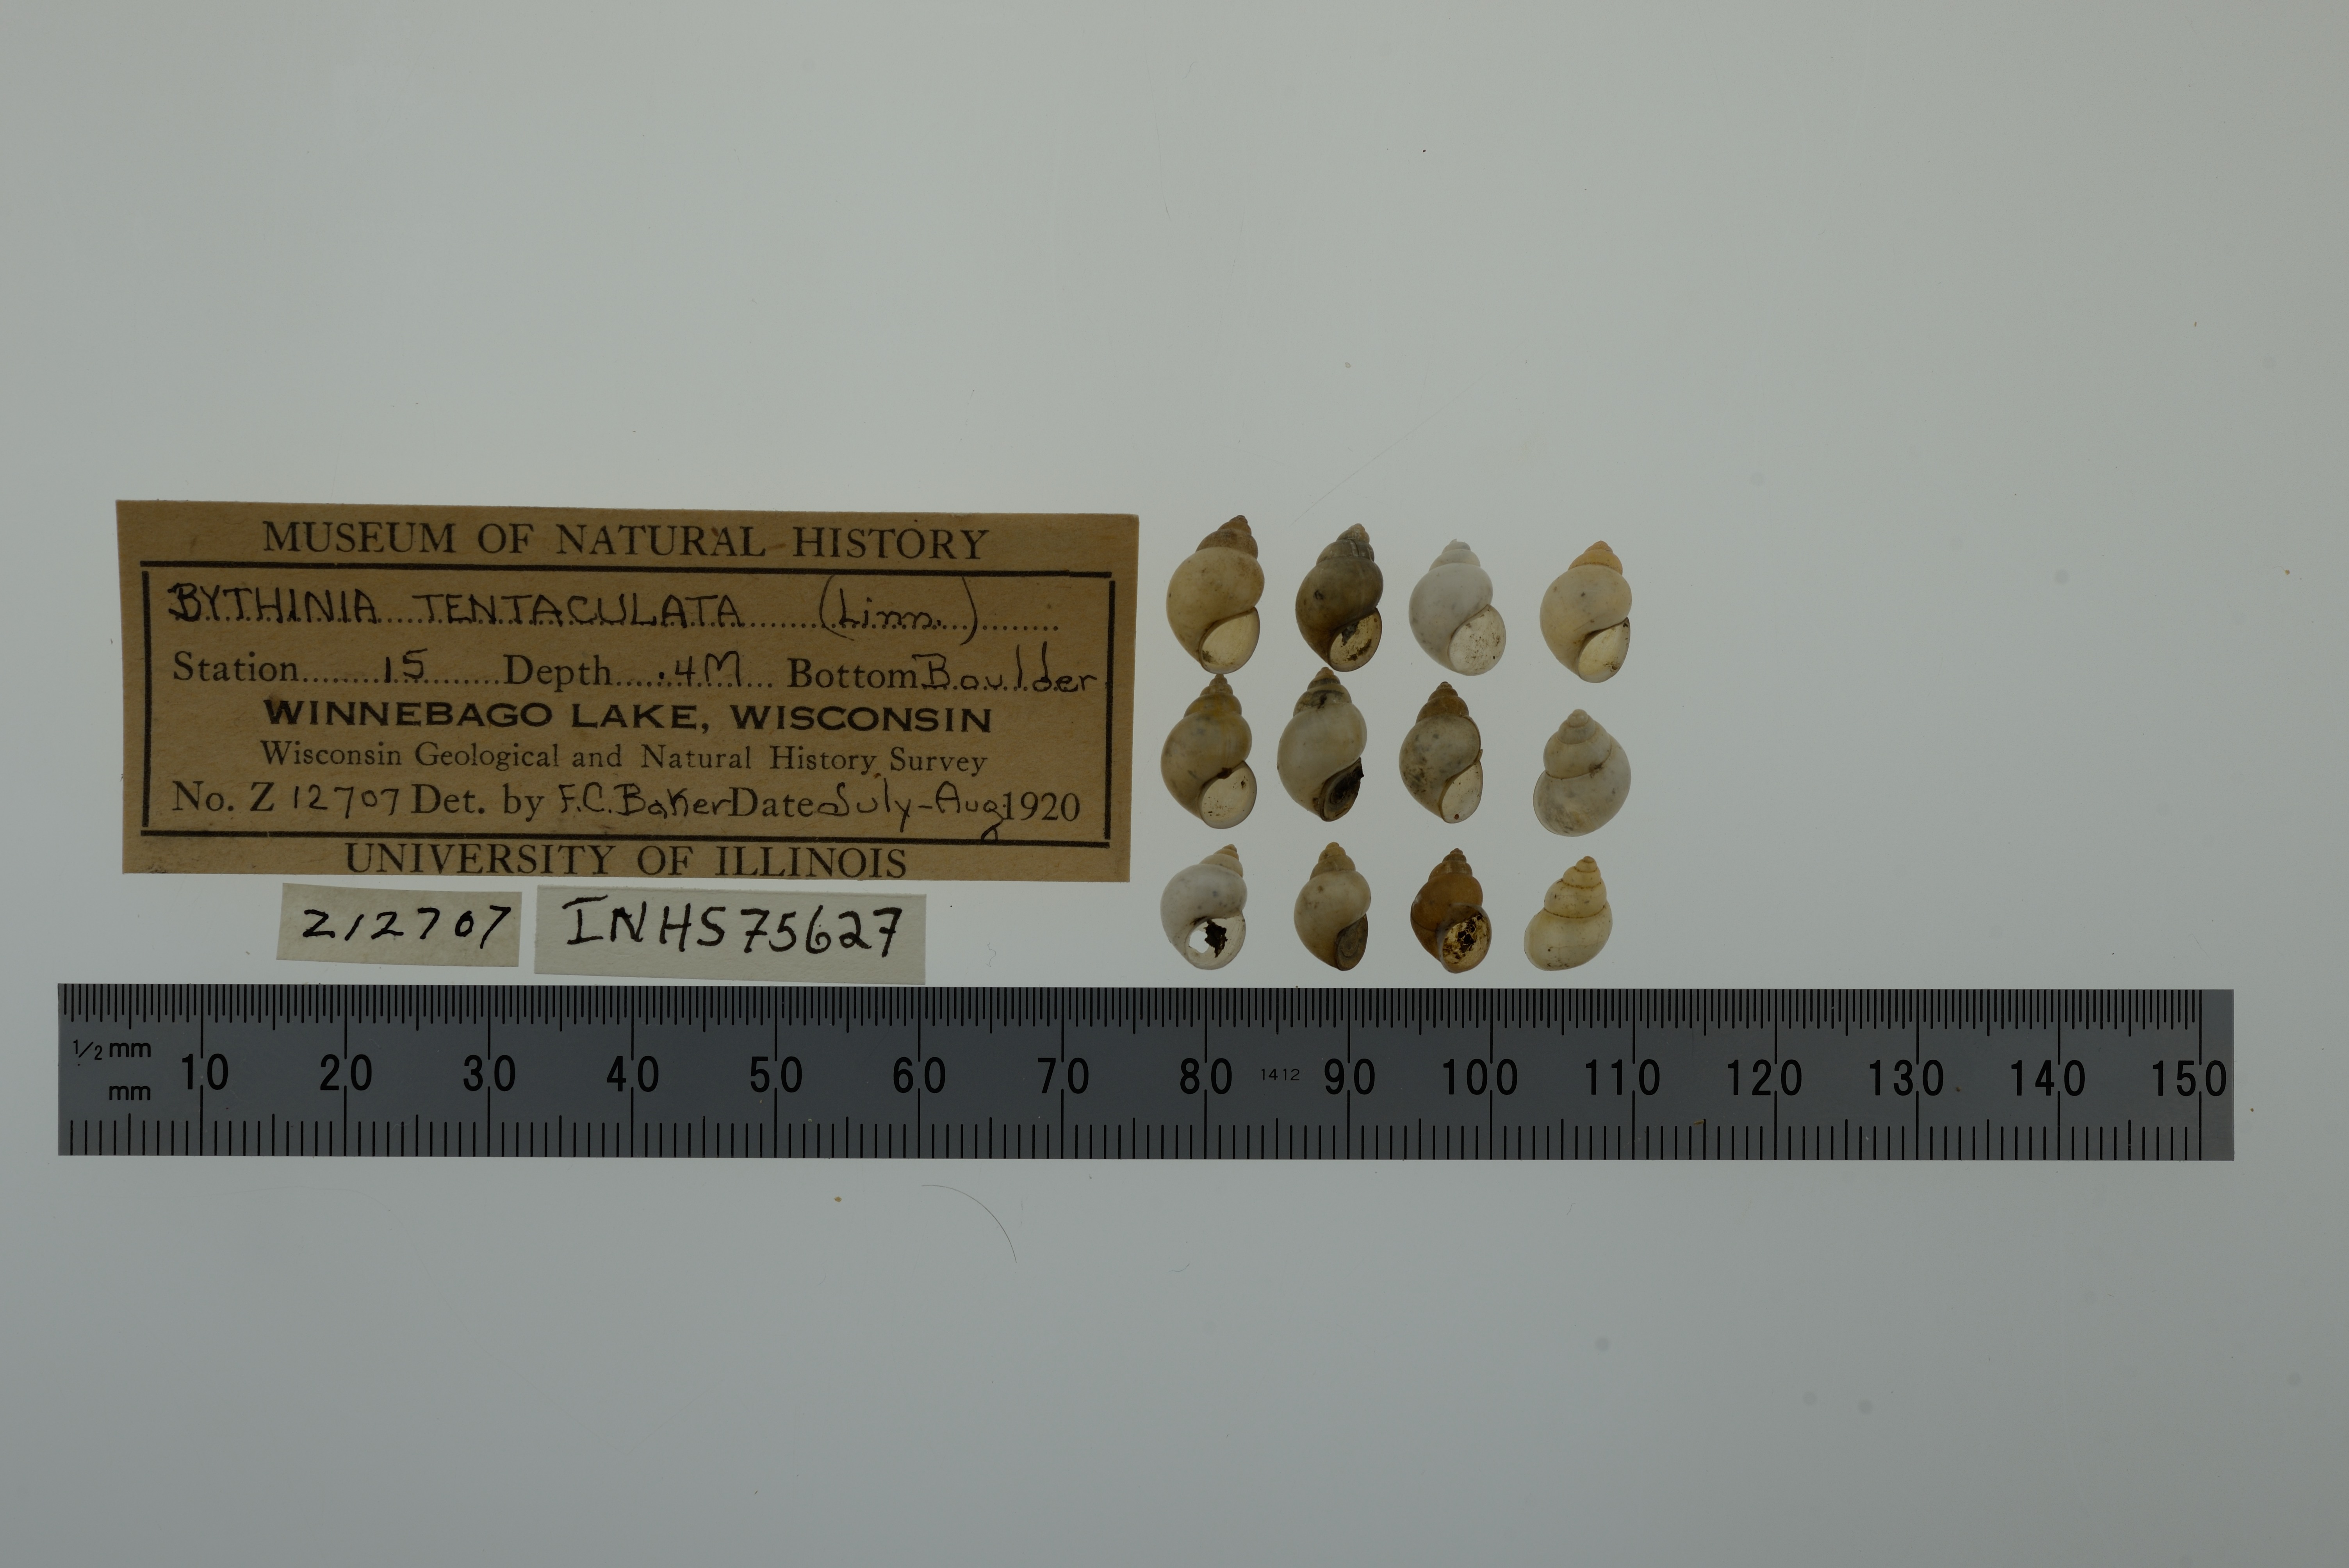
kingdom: Animalia
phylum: Mollusca
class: Gastropoda
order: Littorinimorpha
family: Bithyniidae
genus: Bithynia
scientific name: Bithynia tentaculata
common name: Common bithynia
